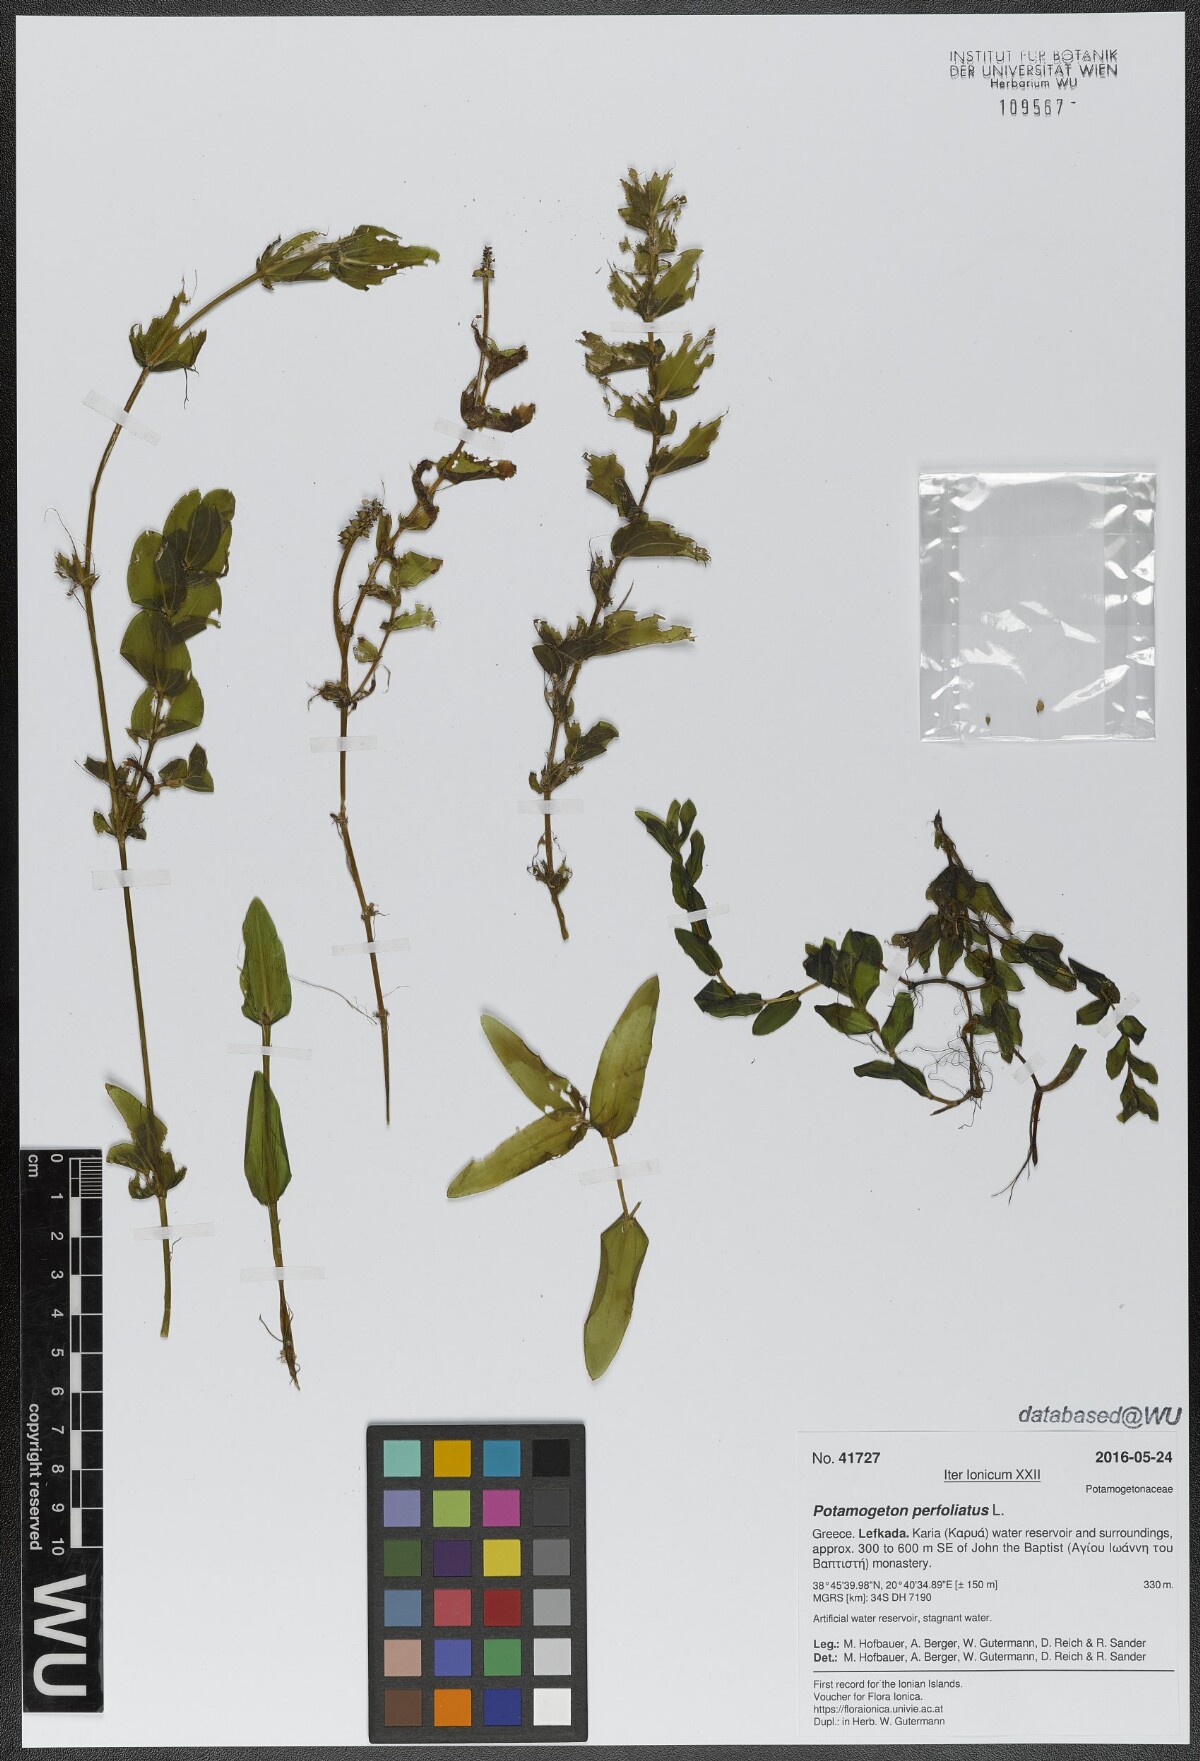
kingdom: Plantae
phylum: Tracheophyta
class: Liliopsida
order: Alismatales
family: Potamogetonaceae
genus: Potamogeton
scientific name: Potamogeton perfoliatus
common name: Perfoliate pondweed
